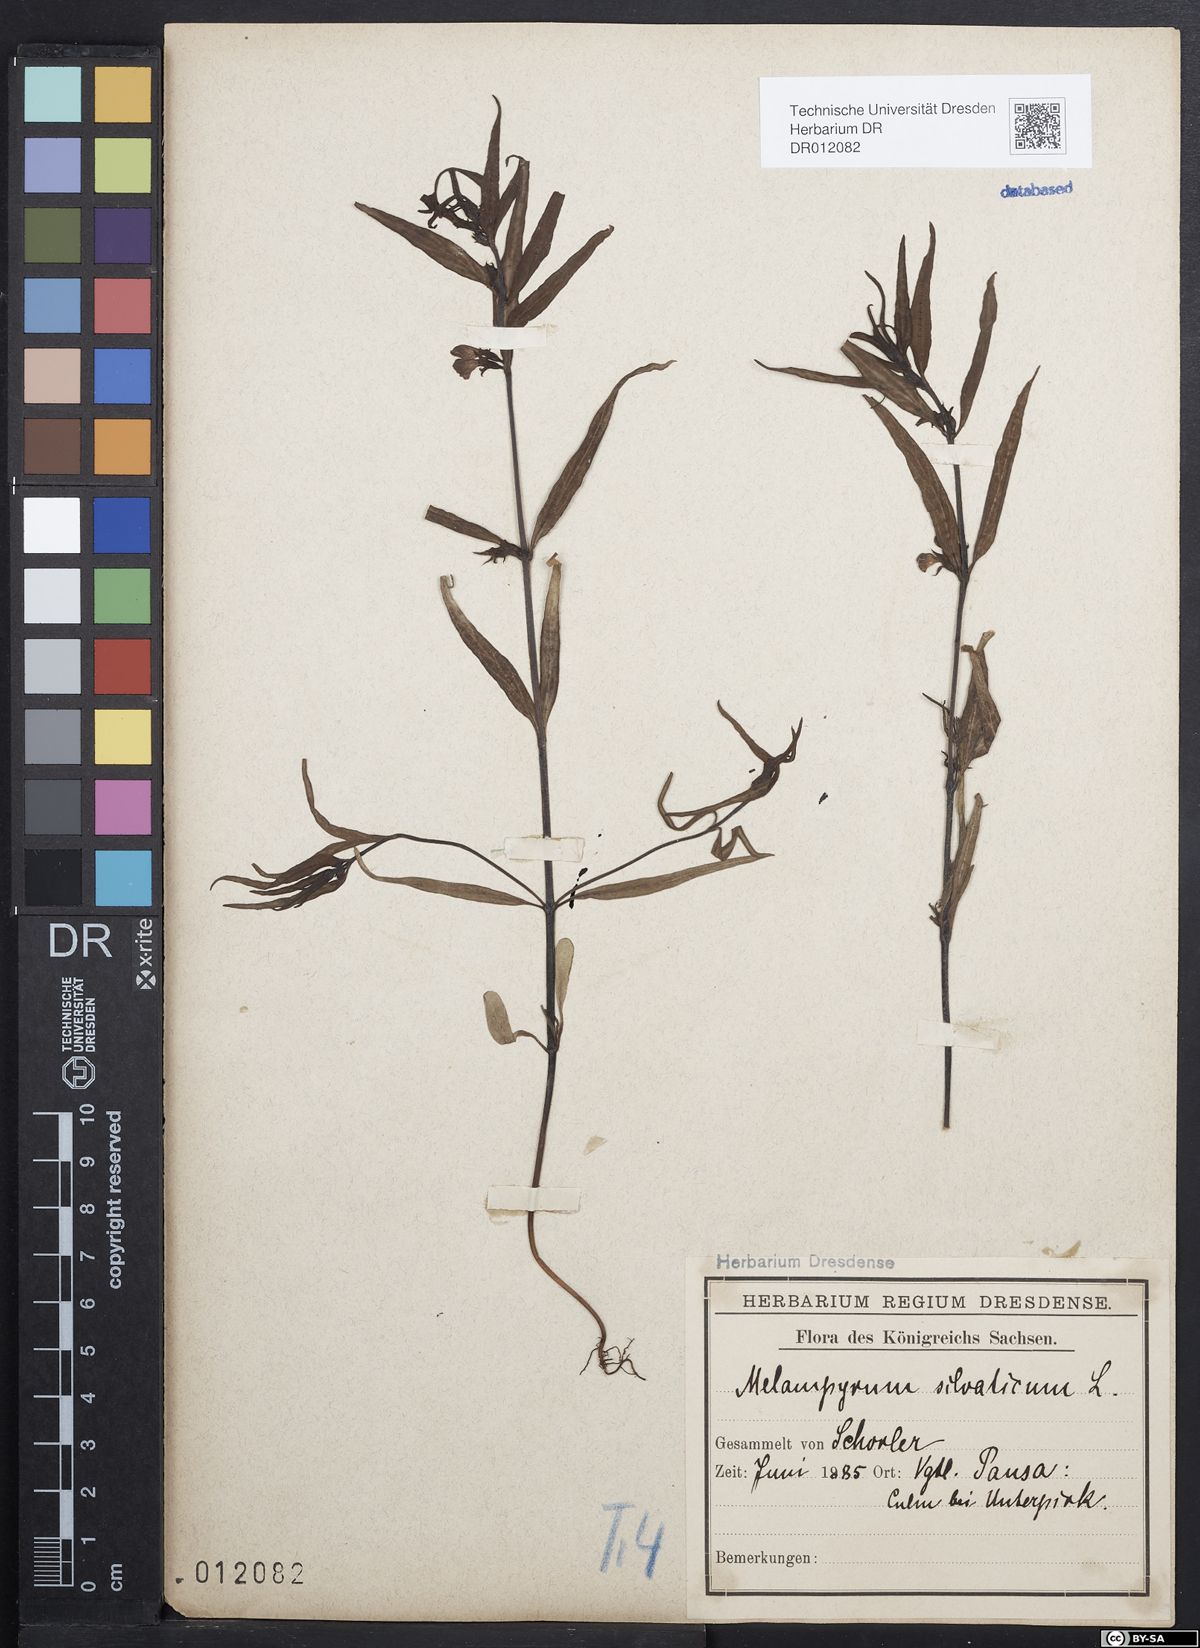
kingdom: Plantae
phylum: Tracheophyta
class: Magnoliopsida
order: Lamiales
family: Orobanchaceae
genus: Melampyrum
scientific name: Melampyrum sylvaticum
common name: Small cow-wheat
